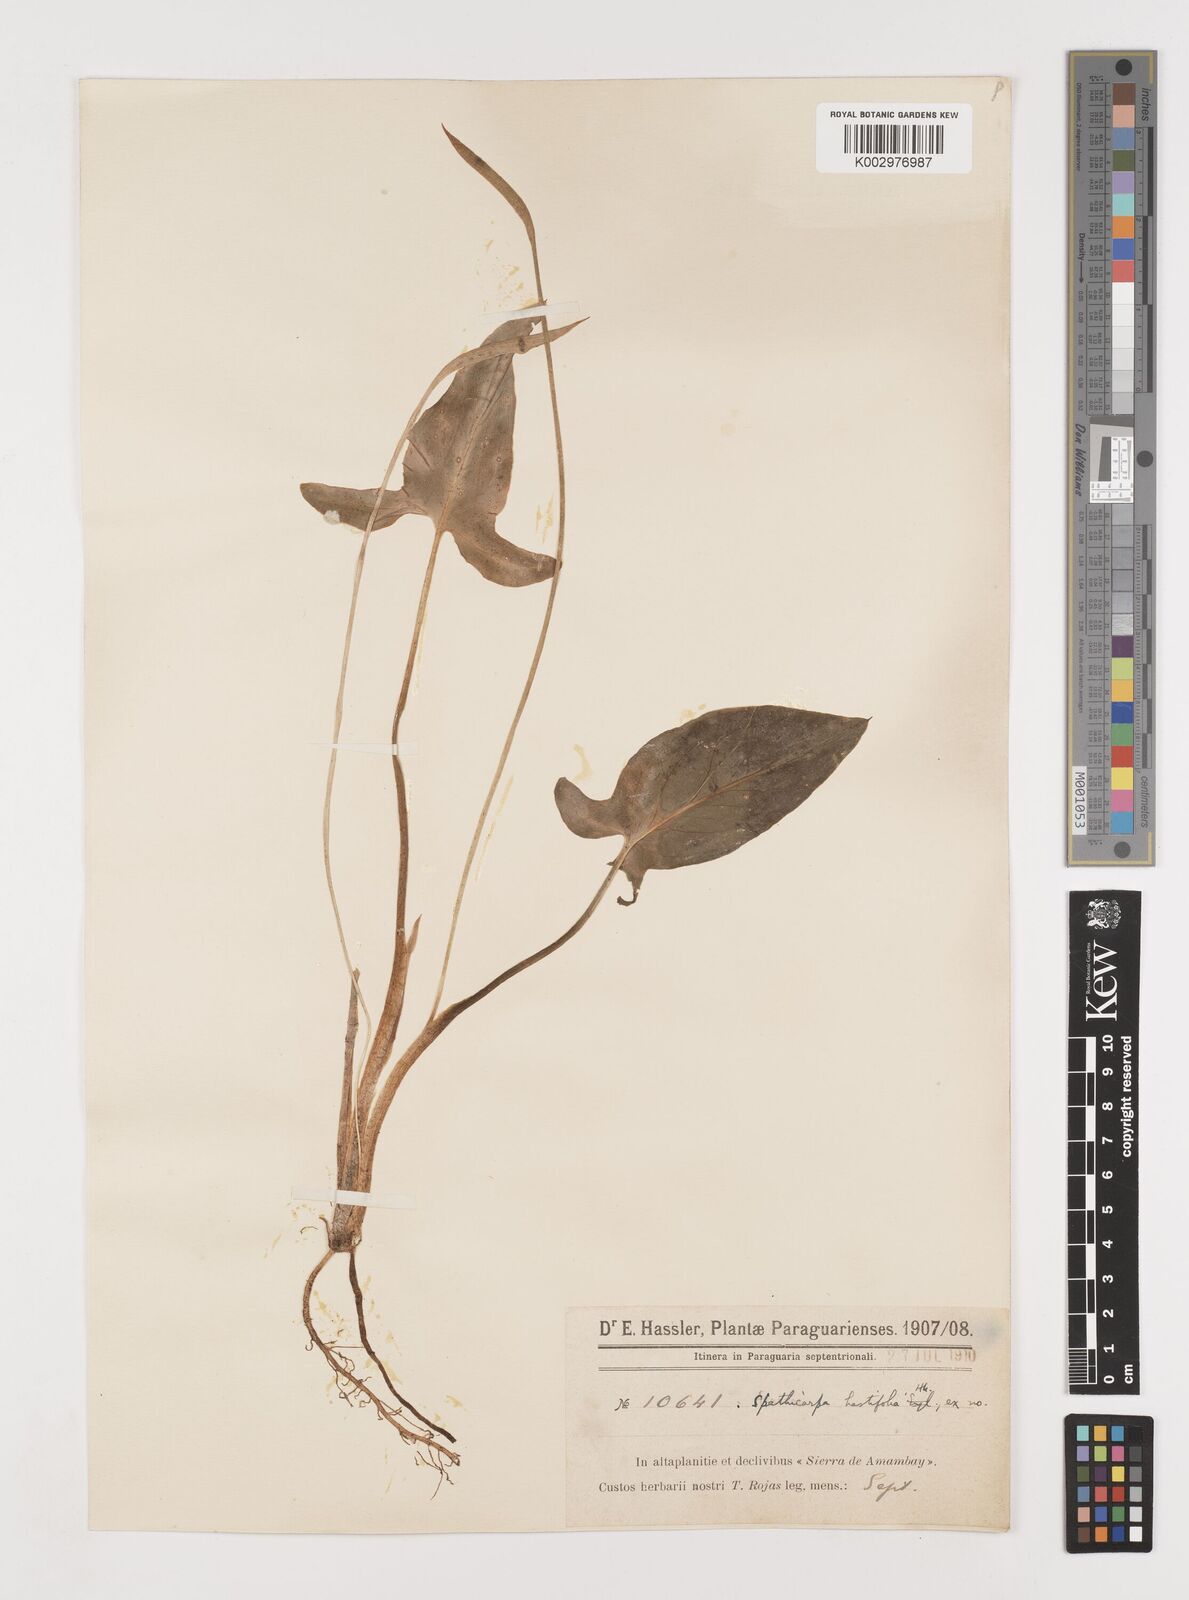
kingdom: Plantae
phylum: Tracheophyta
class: Liliopsida
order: Alismatales
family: Araceae
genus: Spathicarpa
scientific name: Spathicarpa hastifolia
